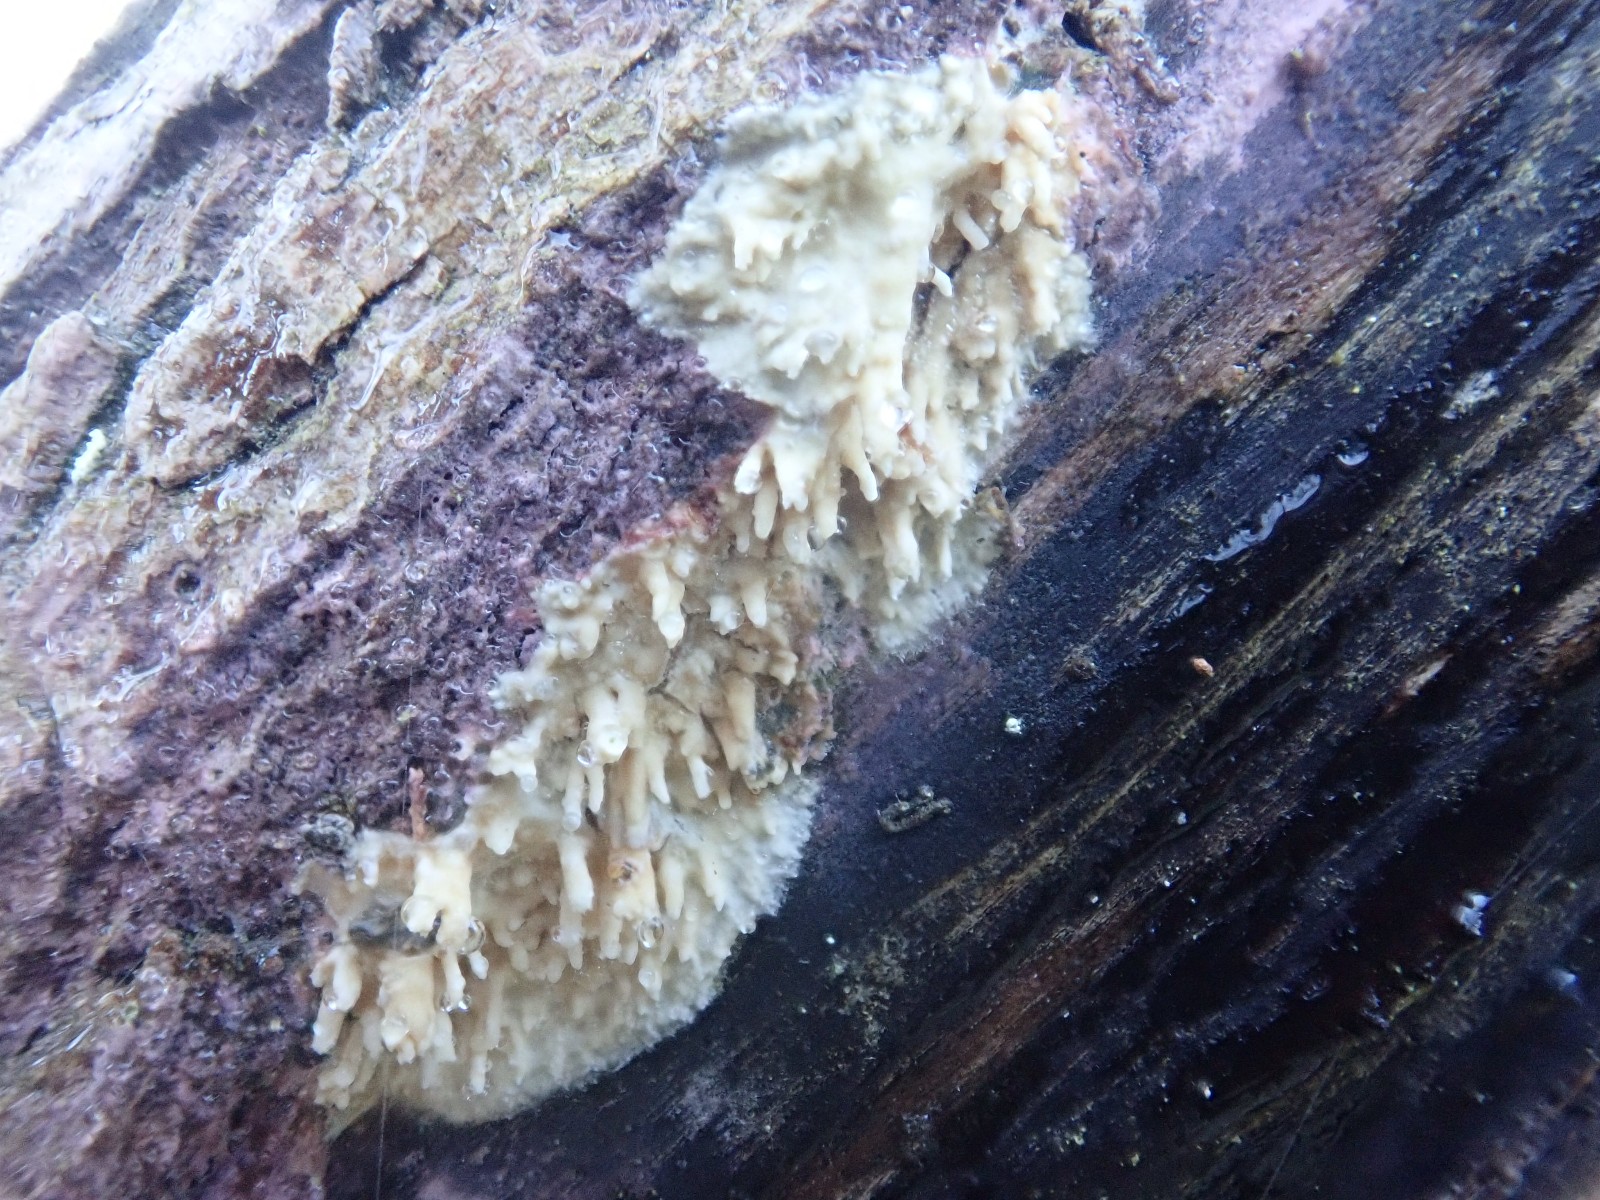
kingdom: Fungi
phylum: Basidiomycota
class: Agaricomycetes
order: Hymenochaetales
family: Schizoporaceae
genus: Xylodon
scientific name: Xylodon radula
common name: grovtandet kalkskind
